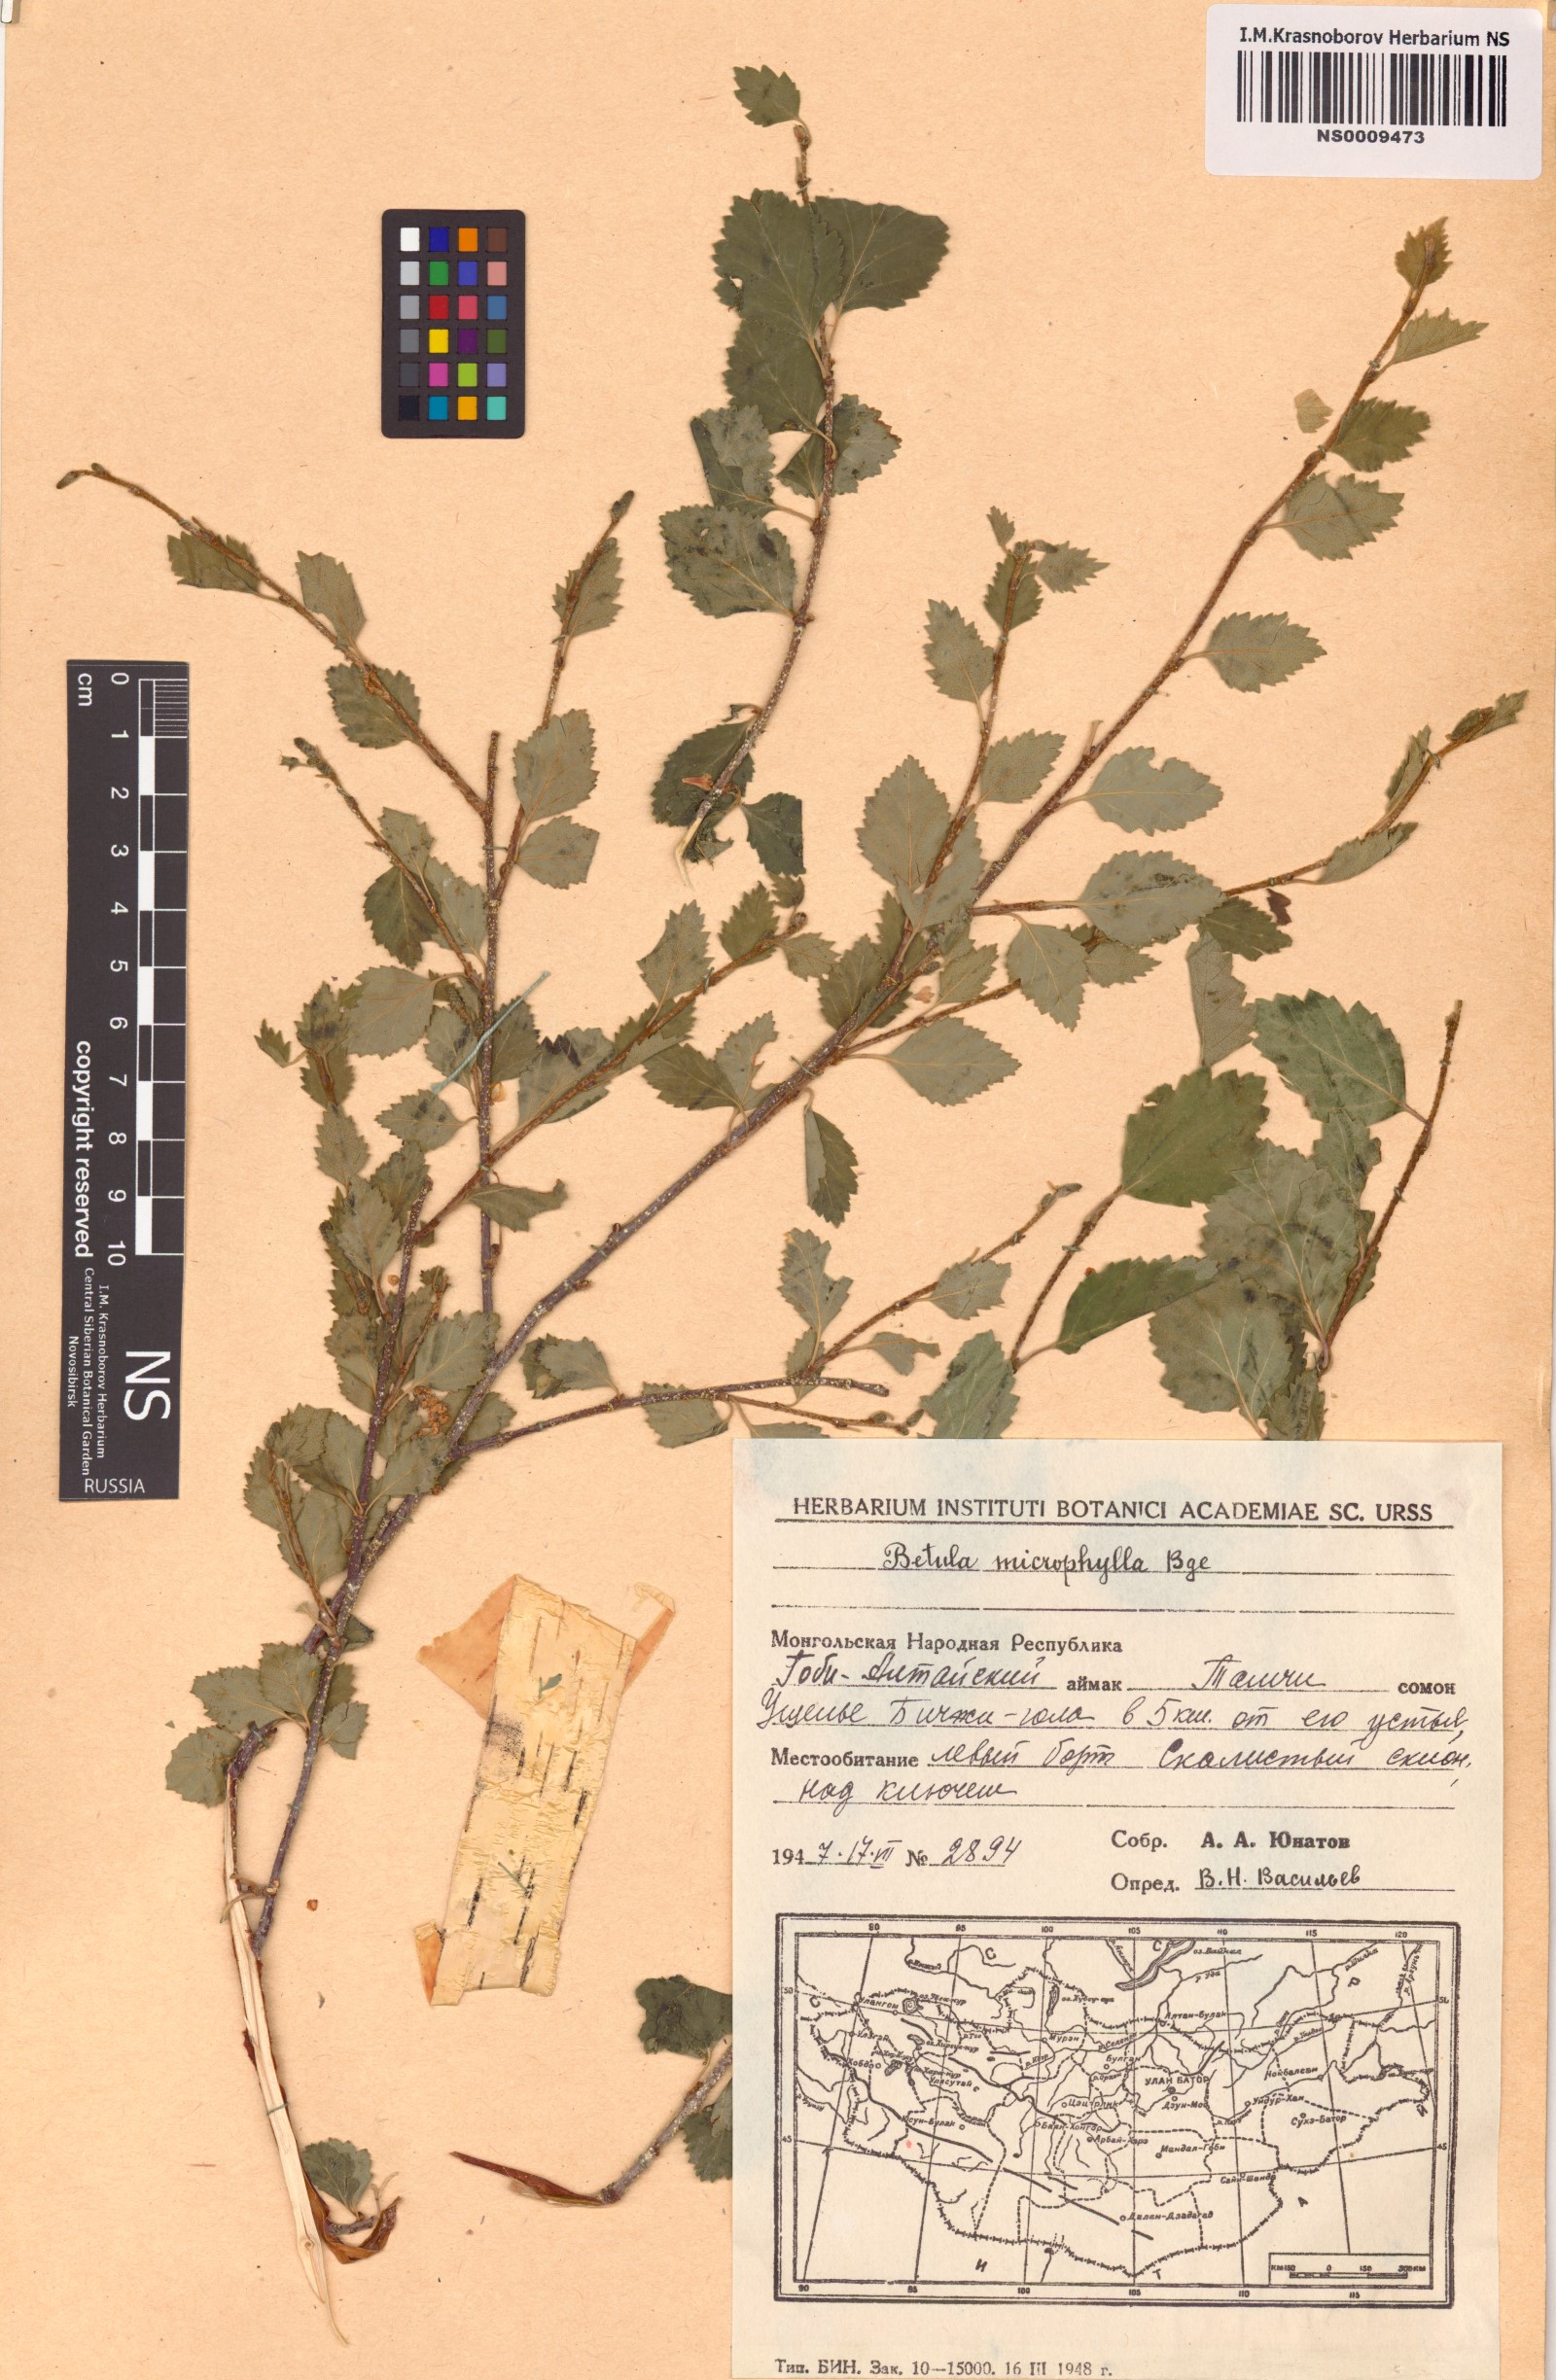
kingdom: Plantae
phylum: Tracheophyta
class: Magnoliopsida
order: Fagales
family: Betulaceae
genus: Betula
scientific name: Betula microphylla
